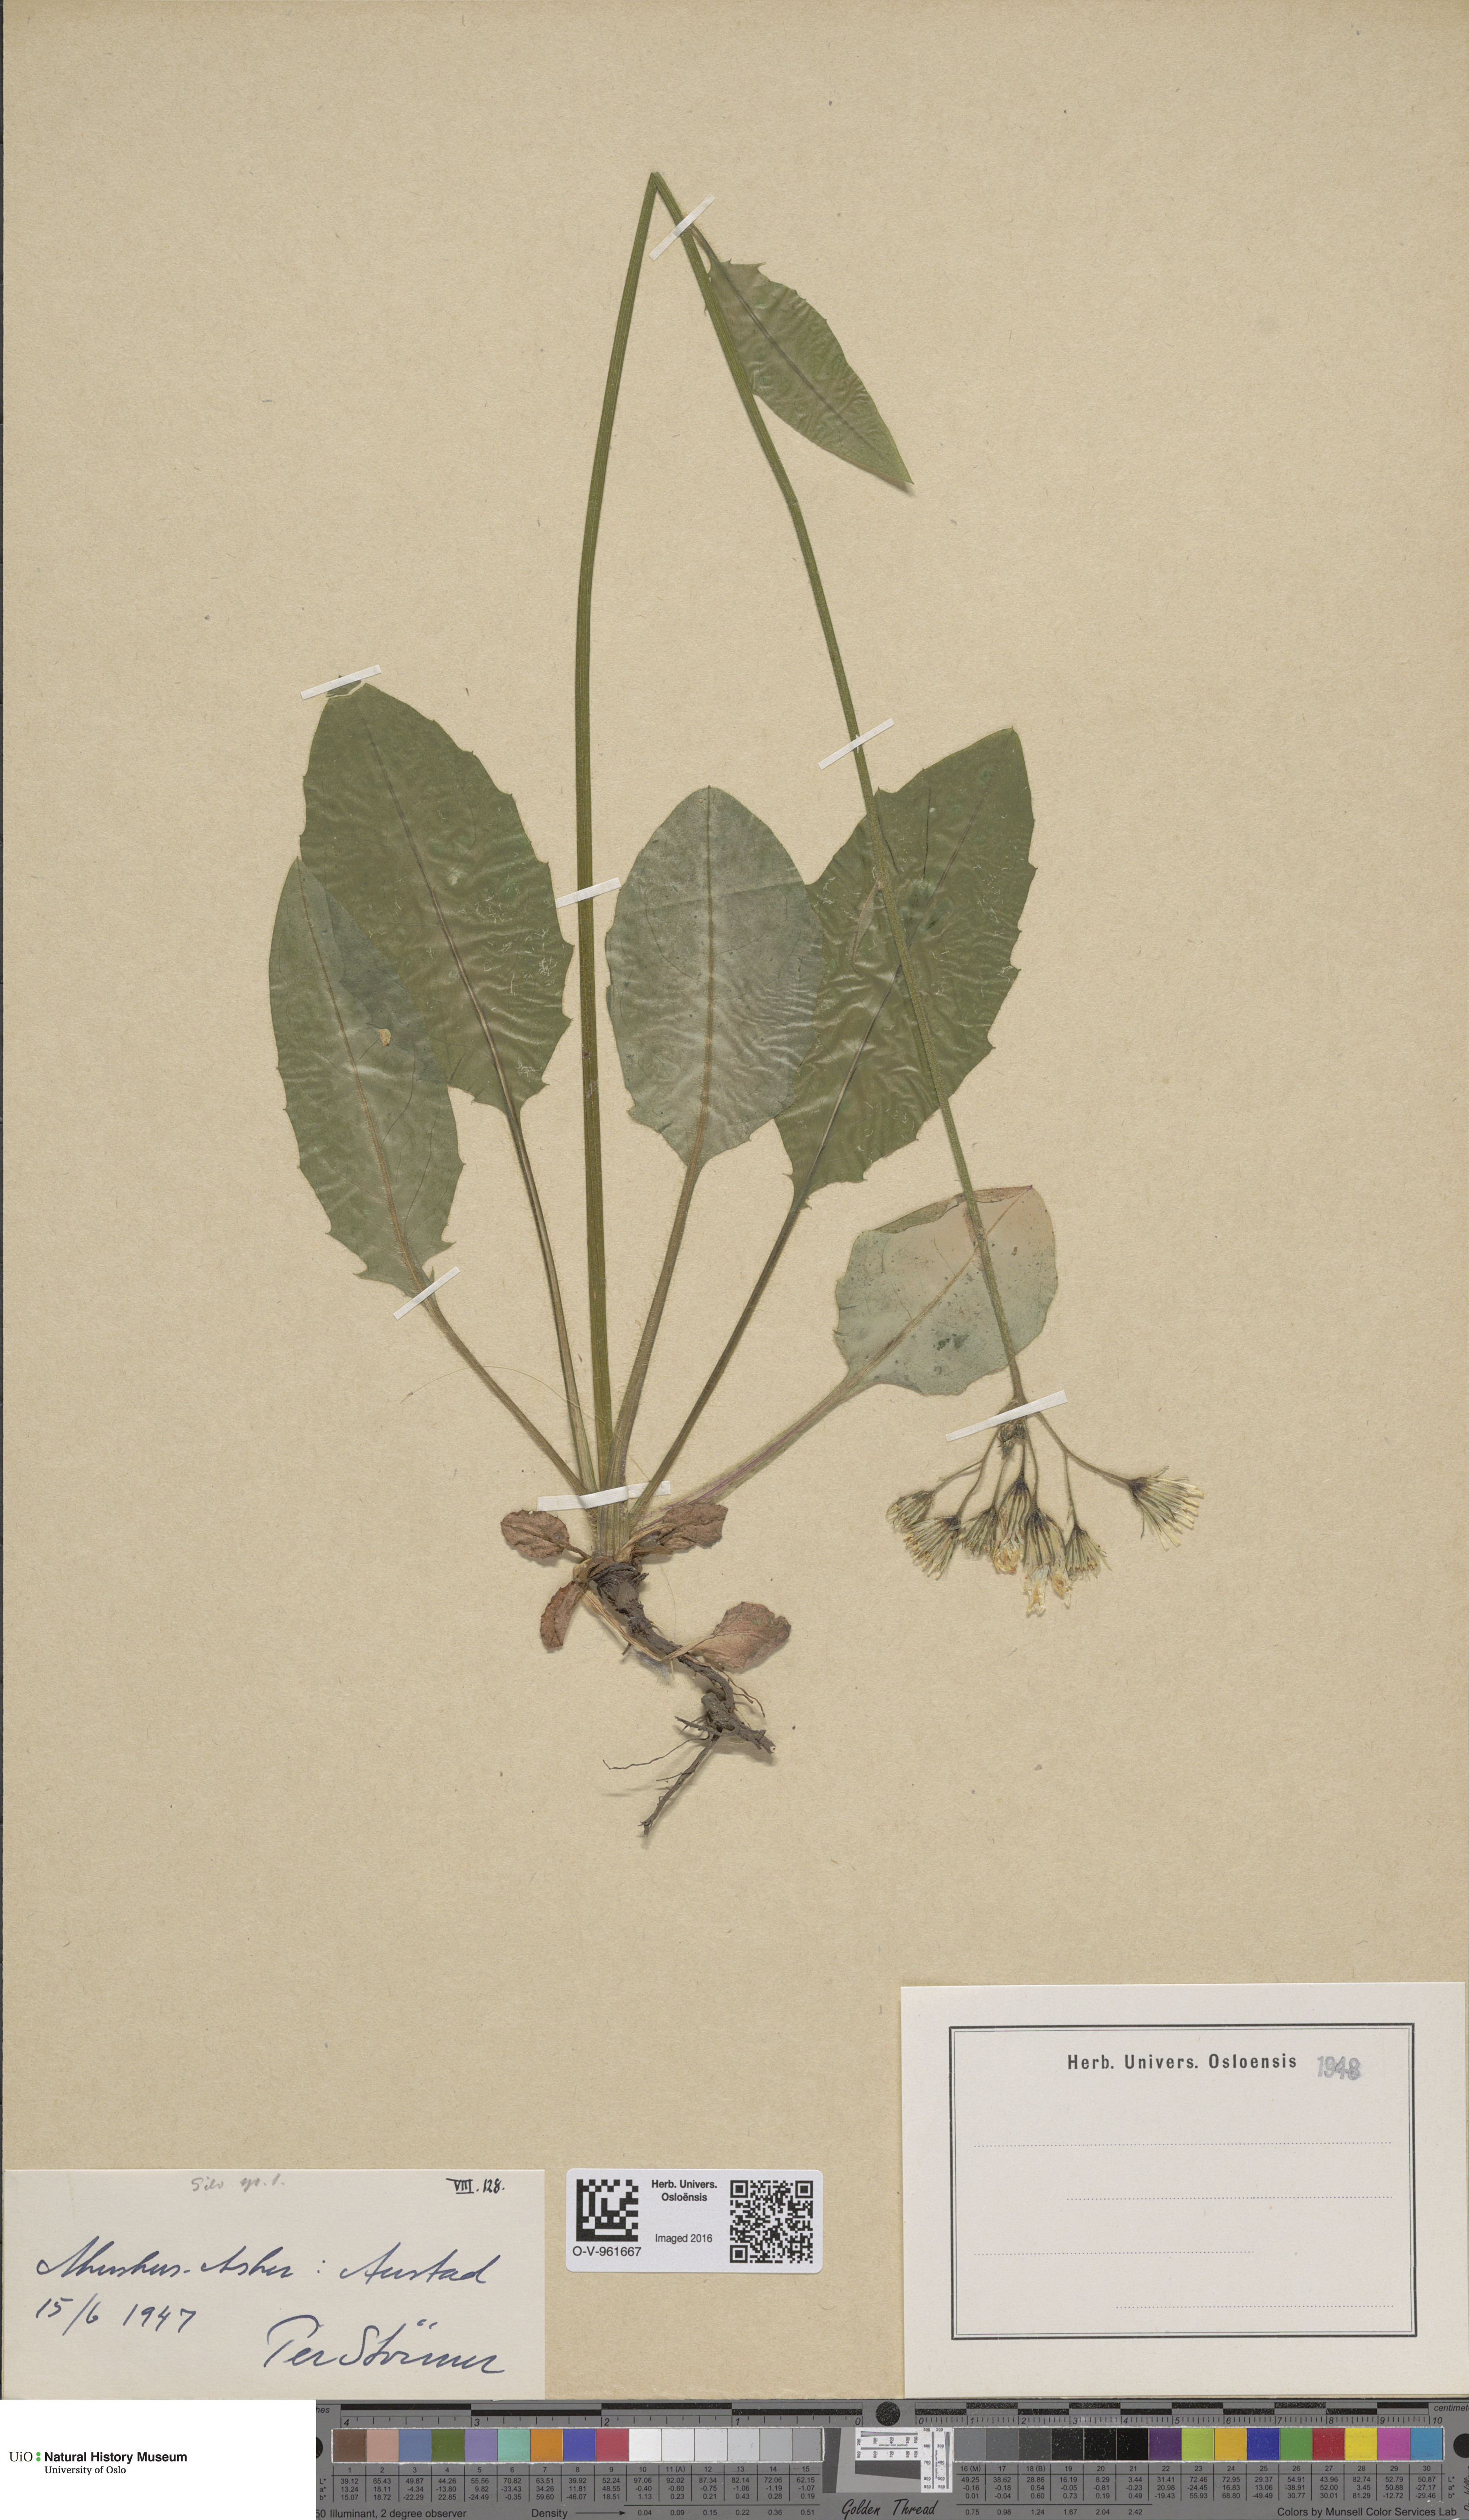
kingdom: Plantae
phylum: Tracheophyta
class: Magnoliopsida
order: Asterales
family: Asteraceae
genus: Hieracium
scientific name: Hieracium
